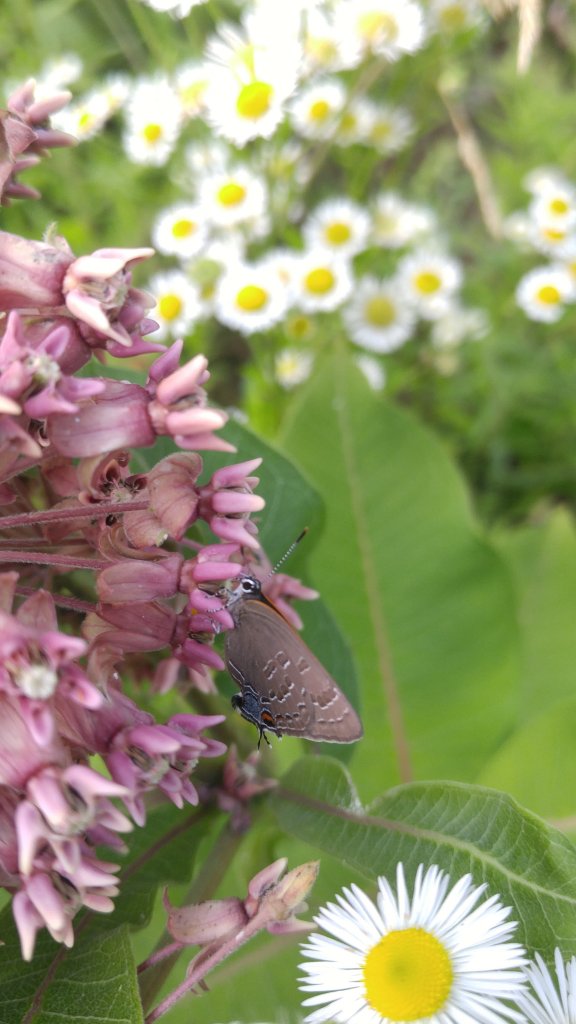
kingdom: Animalia
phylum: Arthropoda
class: Insecta
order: Lepidoptera
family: Lycaenidae
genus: Strymon
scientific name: Strymon caryaevorus
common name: Hickory Hairstreak
